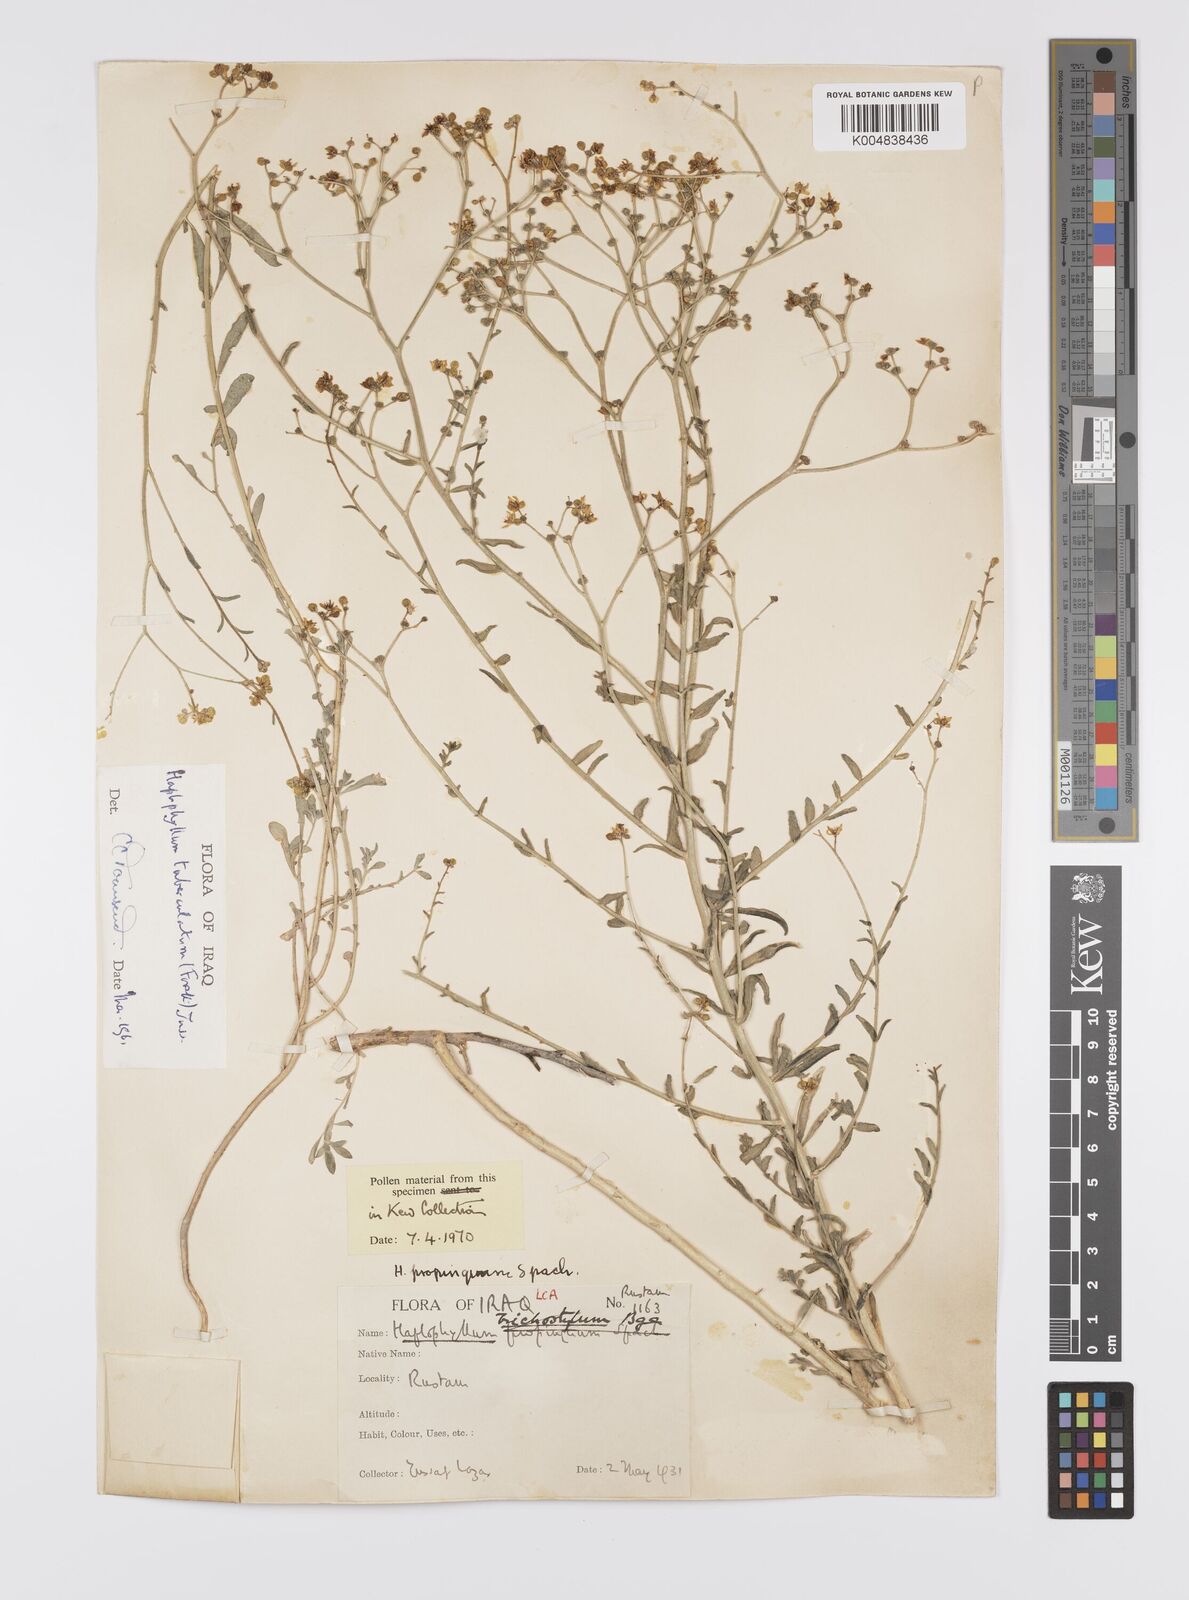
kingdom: Plantae
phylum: Tracheophyta
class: Magnoliopsida
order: Sapindales
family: Rutaceae
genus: Haplophyllum
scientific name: Haplophyllum tuberculatum
